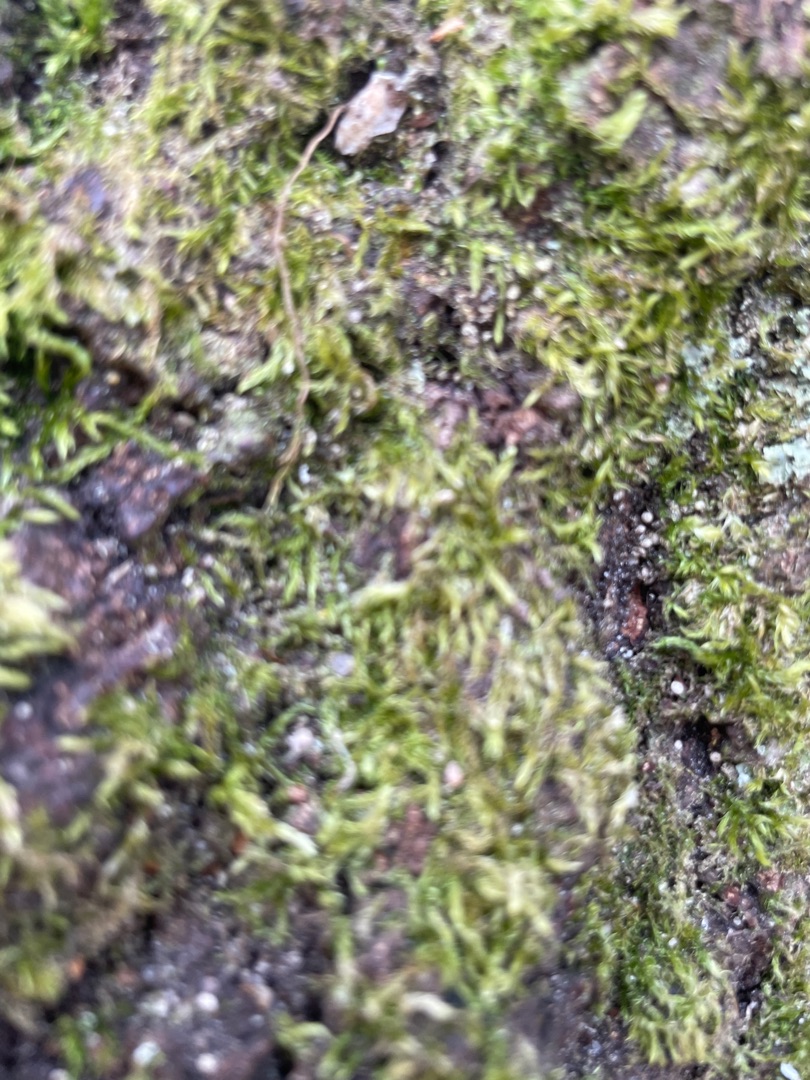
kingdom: Plantae
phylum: Bryophyta
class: Bryopsida
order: Hypnales
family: Hypnaceae
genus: Hypnum
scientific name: Hypnum
